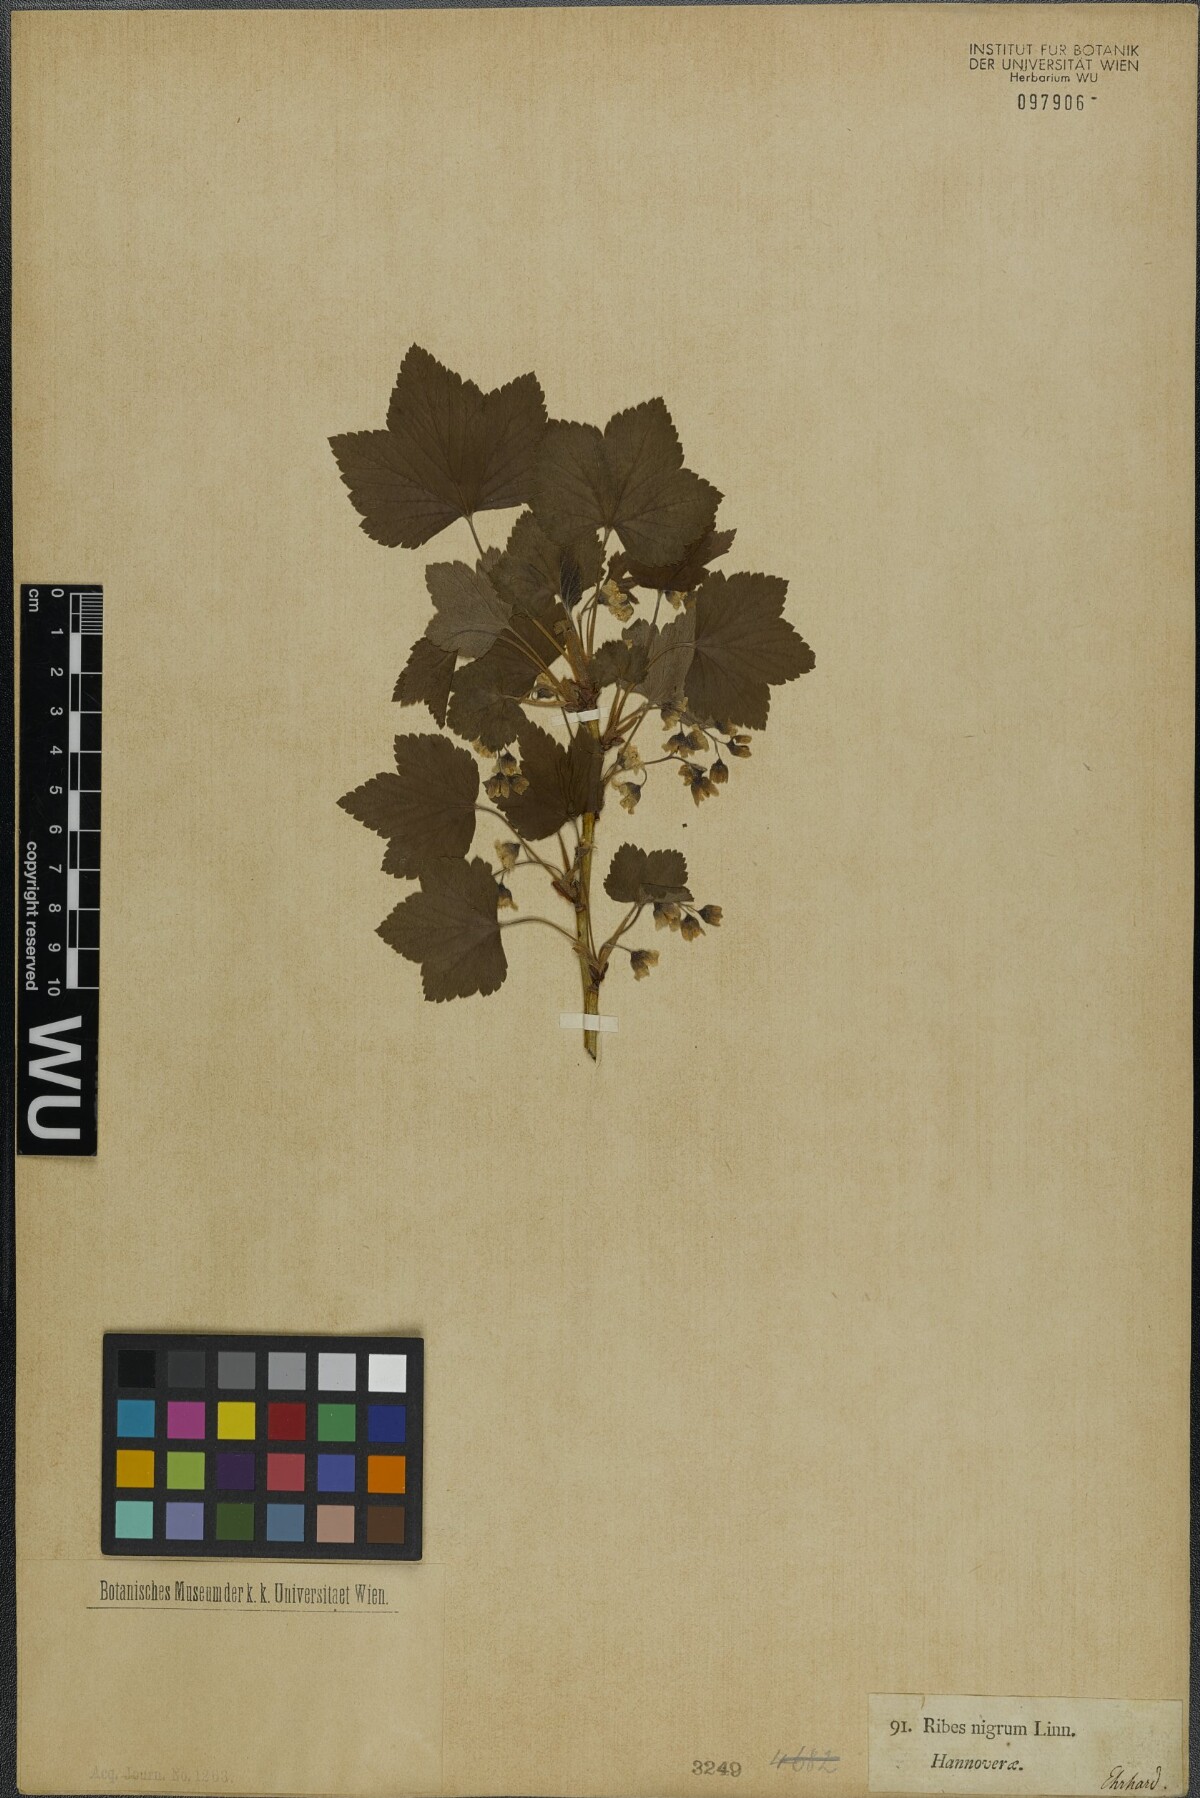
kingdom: Plantae
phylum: Tracheophyta
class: Magnoliopsida
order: Saxifragales
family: Grossulariaceae
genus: Ribes
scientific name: Ribes nigrum
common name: Black currant
